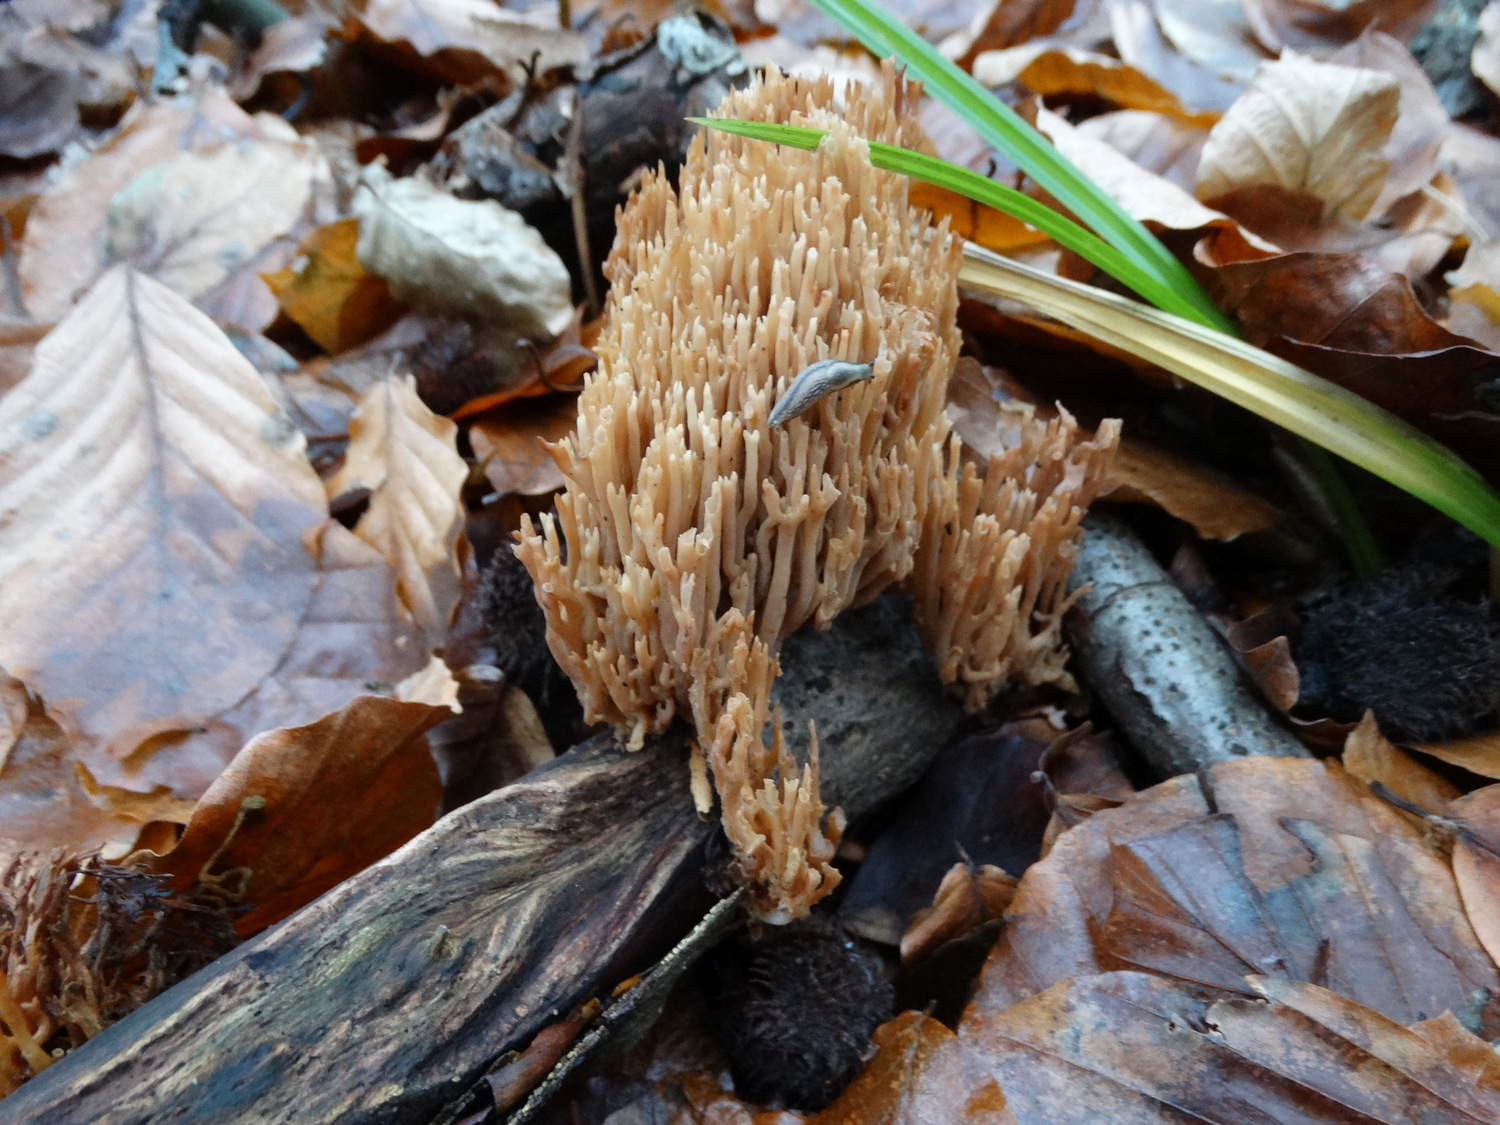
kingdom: Fungi
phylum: Basidiomycota
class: Agaricomycetes
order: Gomphales
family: Gomphaceae
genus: Ramaria
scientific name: Ramaria stricta
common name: rank koralsvamp
